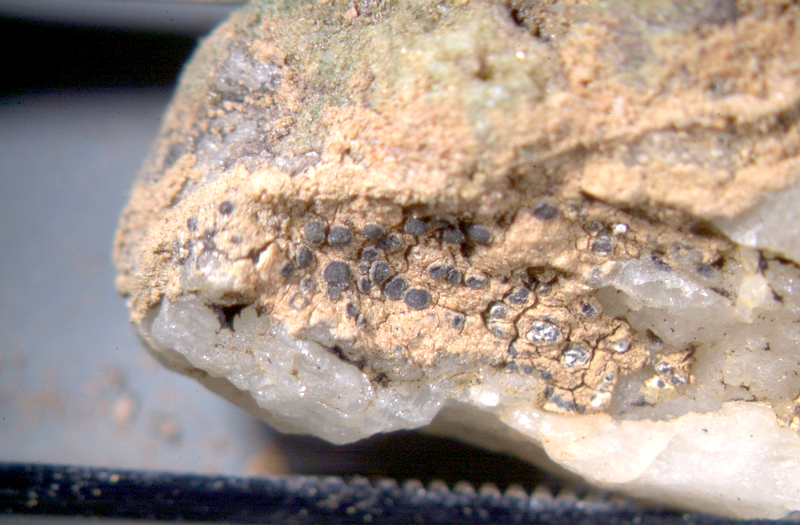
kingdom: Fungi
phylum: Ascomycota
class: Lecanoromycetes
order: Caliciales
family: Physciaceae
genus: Physcia
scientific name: Physcia
